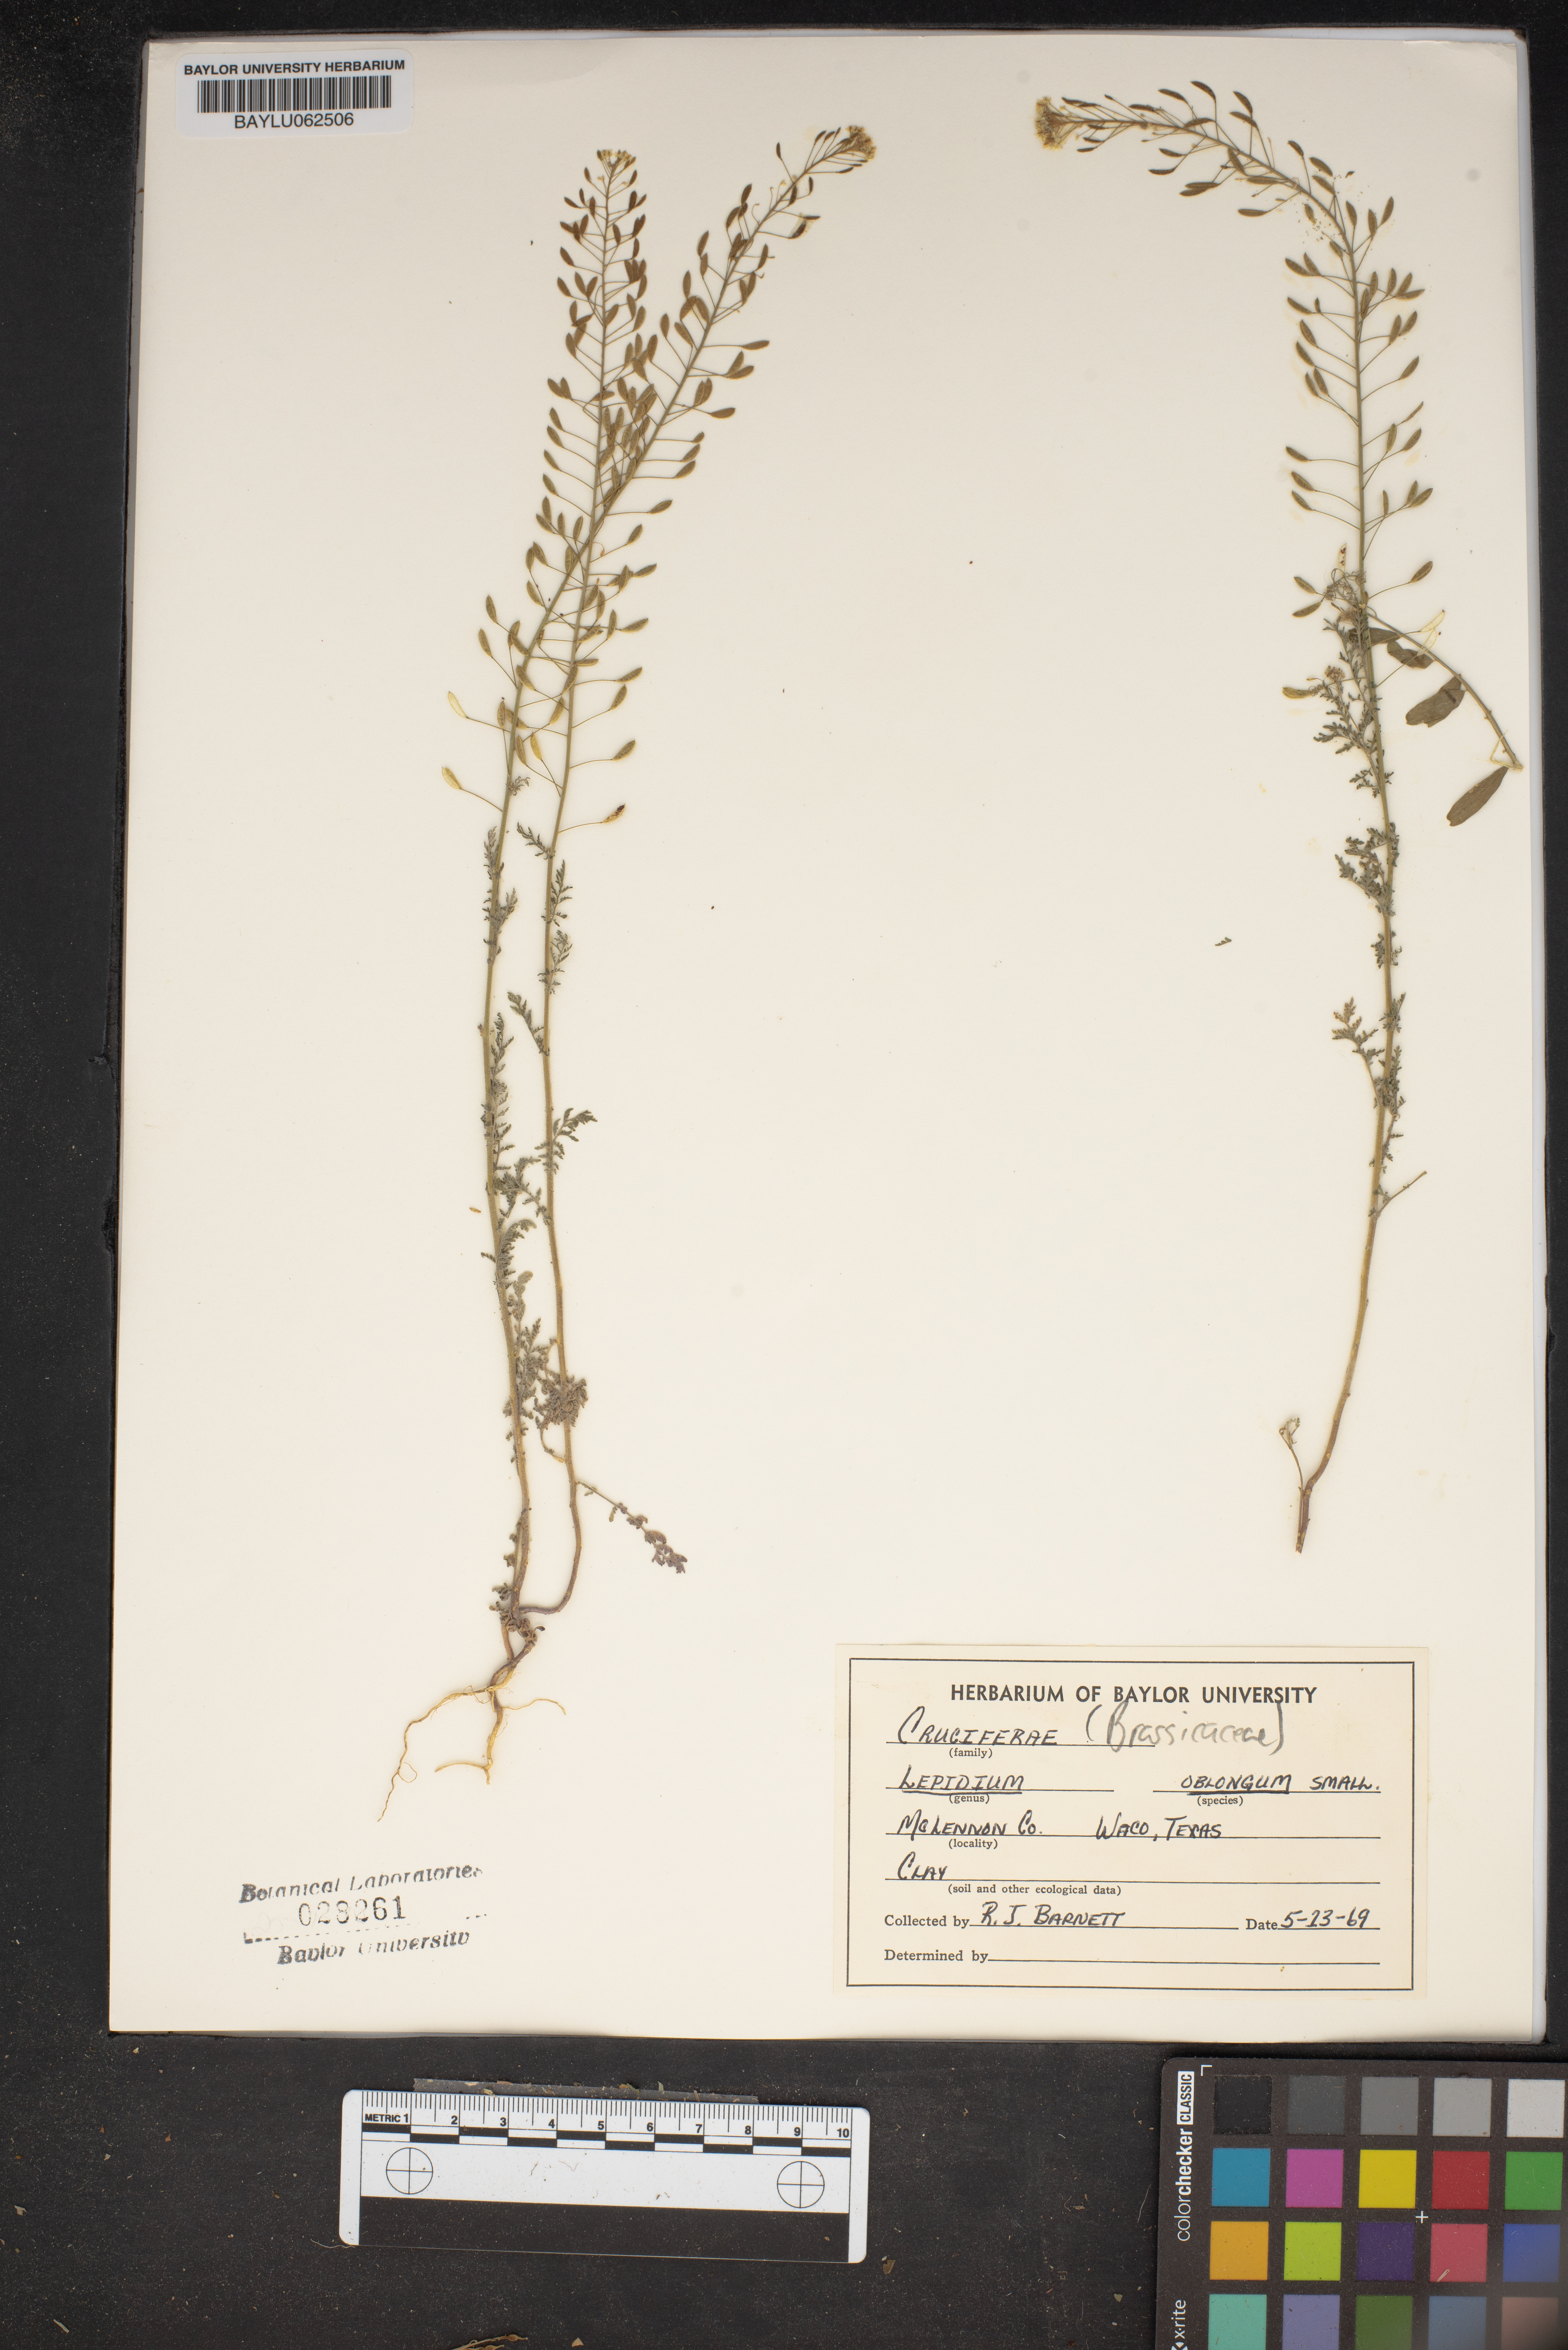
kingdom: Plantae
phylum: Tracheophyta
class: Magnoliopsida
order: Brassicales
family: Brassicaceae
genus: Lepidium
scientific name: Lepidium oblongum
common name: Veiny pepperweed
